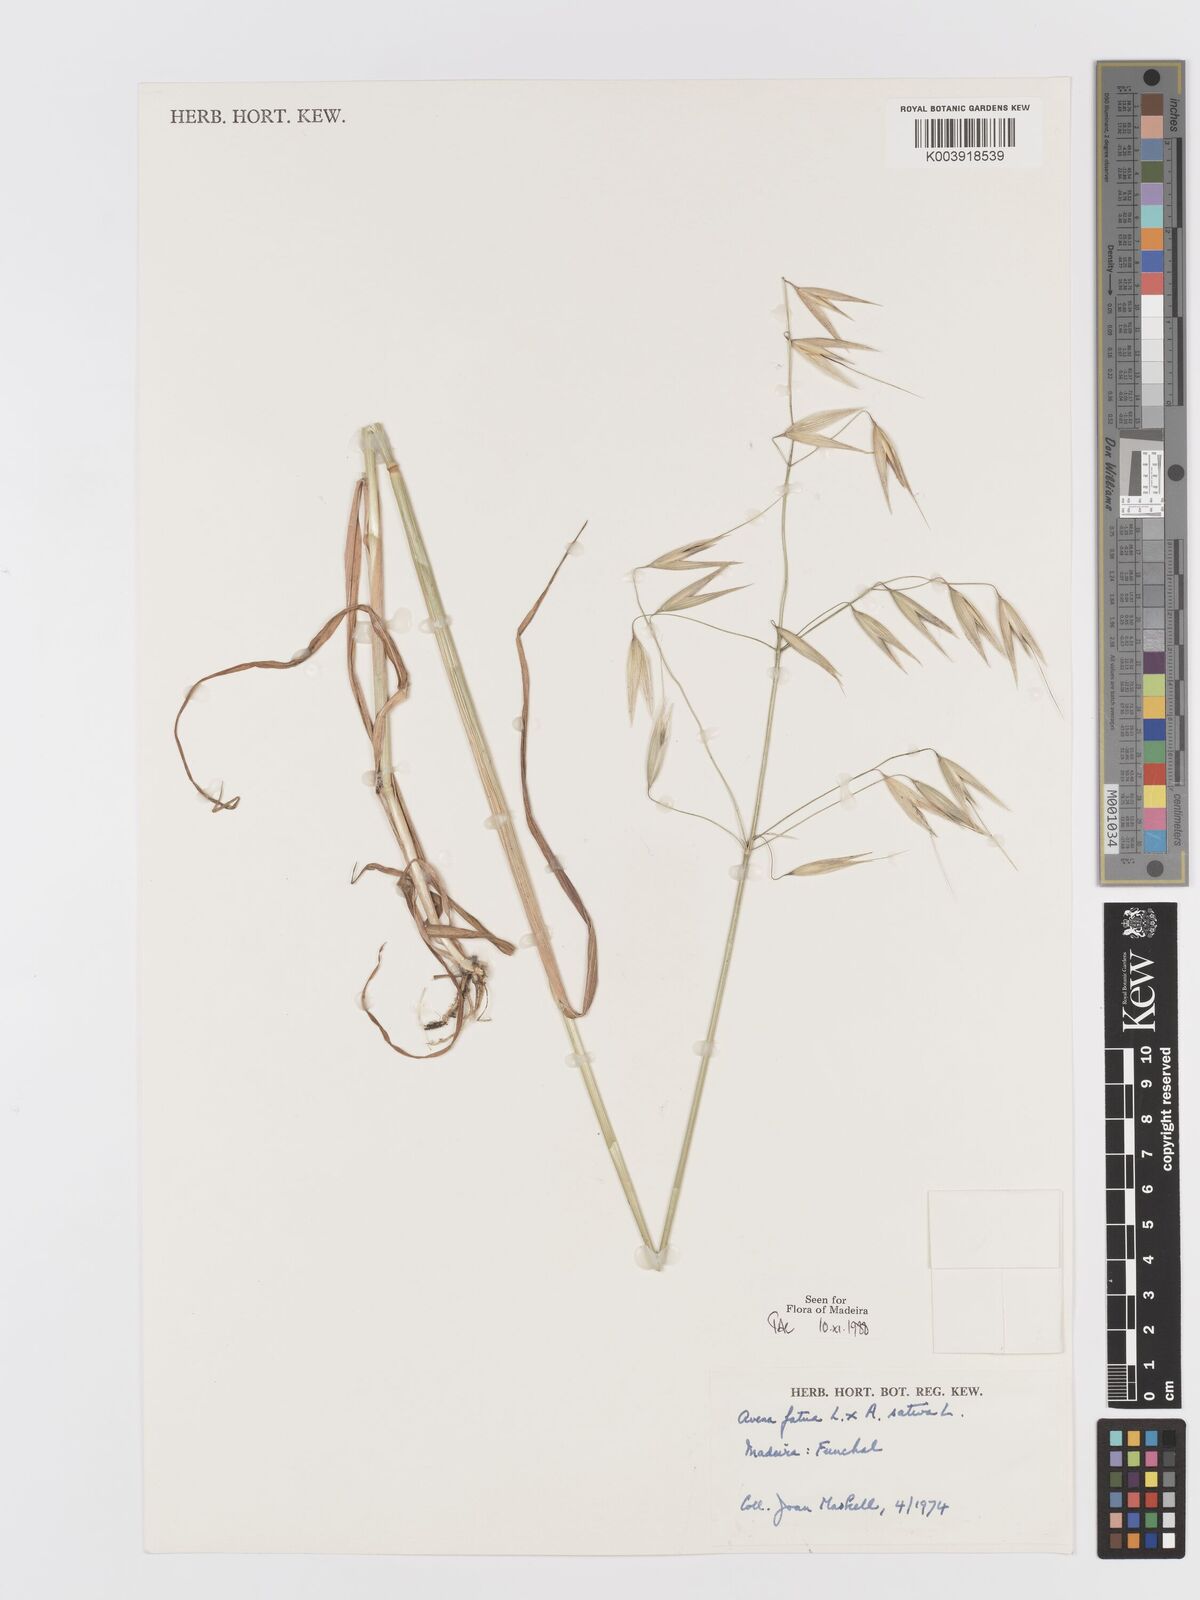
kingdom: Plantae
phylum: Tracheophyta
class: Liliopsida
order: Poales
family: Poaceae
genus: Avena
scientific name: Avena fatua
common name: Wild oat
